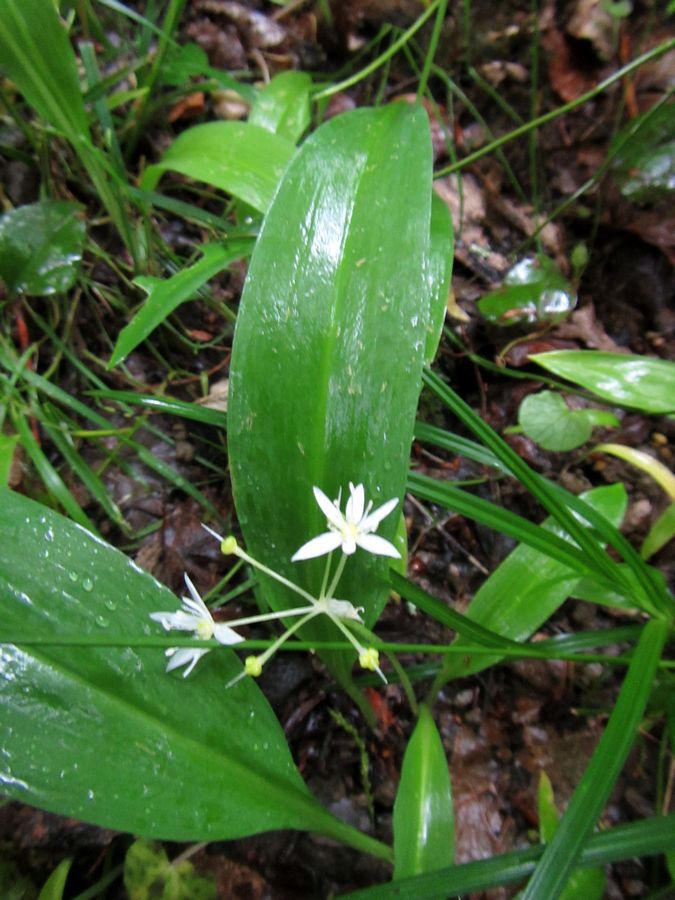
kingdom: Plantae
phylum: Tracheophyta
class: Liliopsida
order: Asparagales
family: Amaryllidaceae
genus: Allium
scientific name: Allium ursinum
